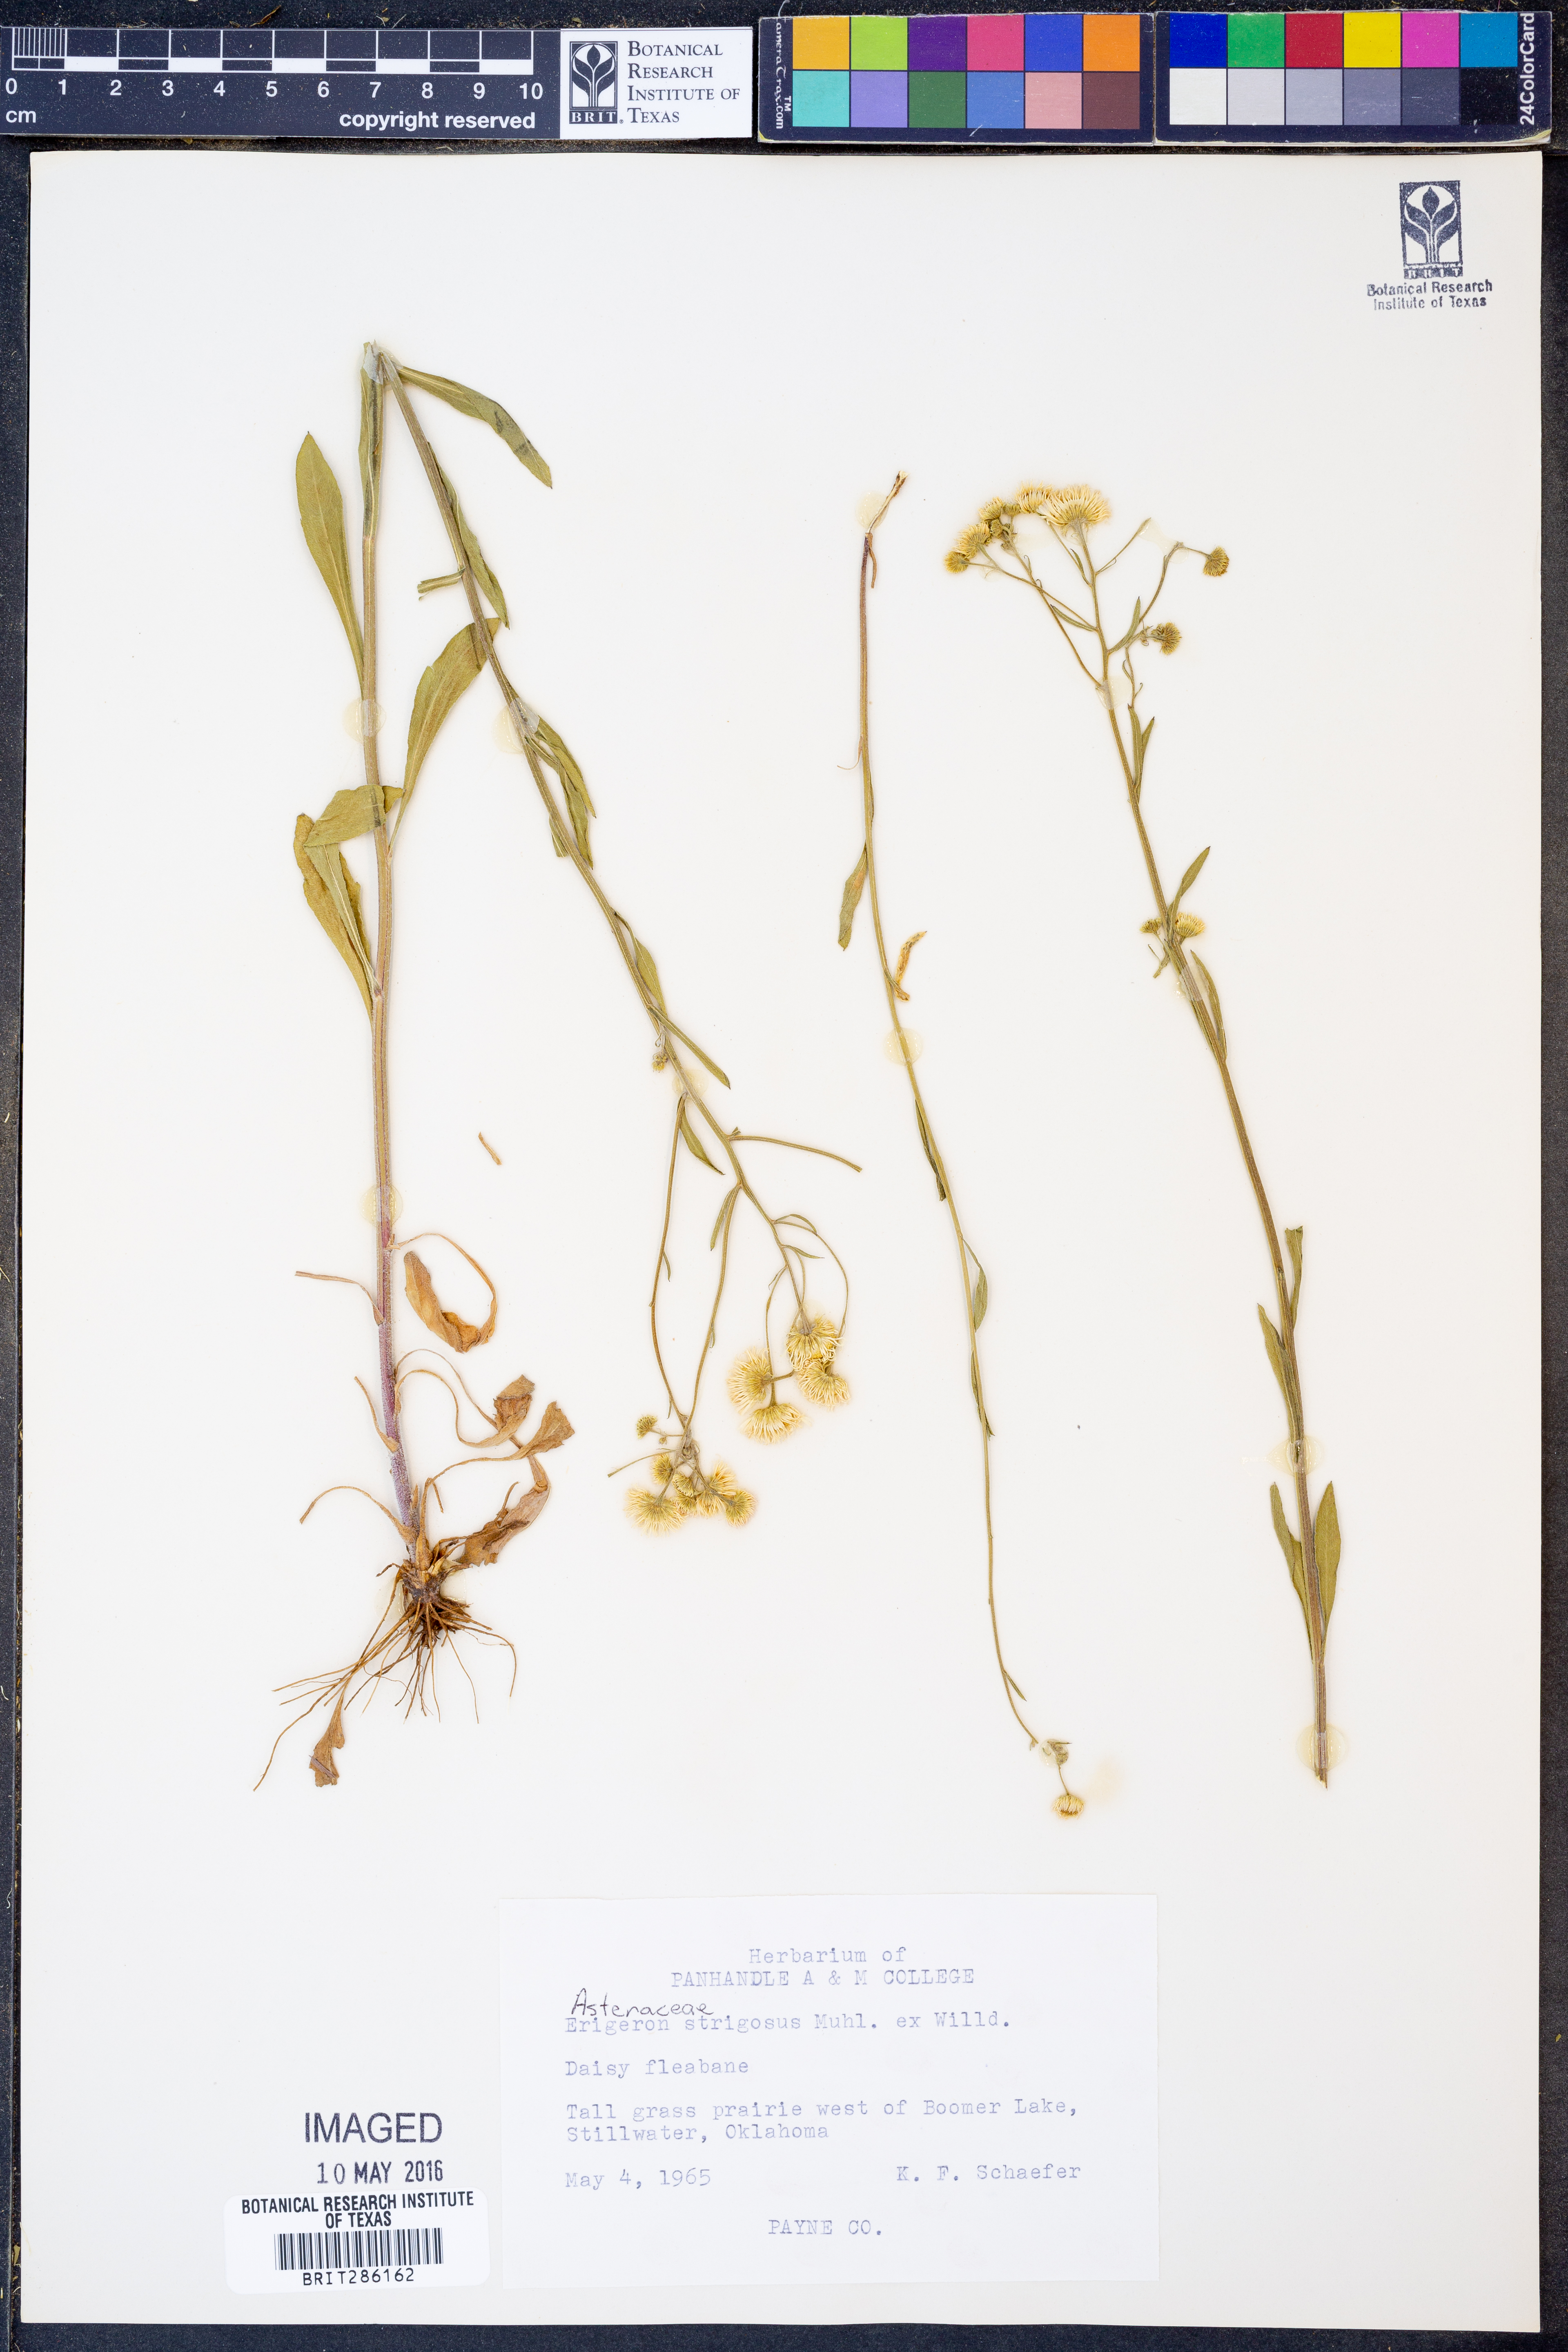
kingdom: Plantae
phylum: Tracheophyta
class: Magnoliopsida
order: Asterales
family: Asteraceae
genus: Erigeron
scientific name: Erigeron strigosus
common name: Common eastern fleabane
